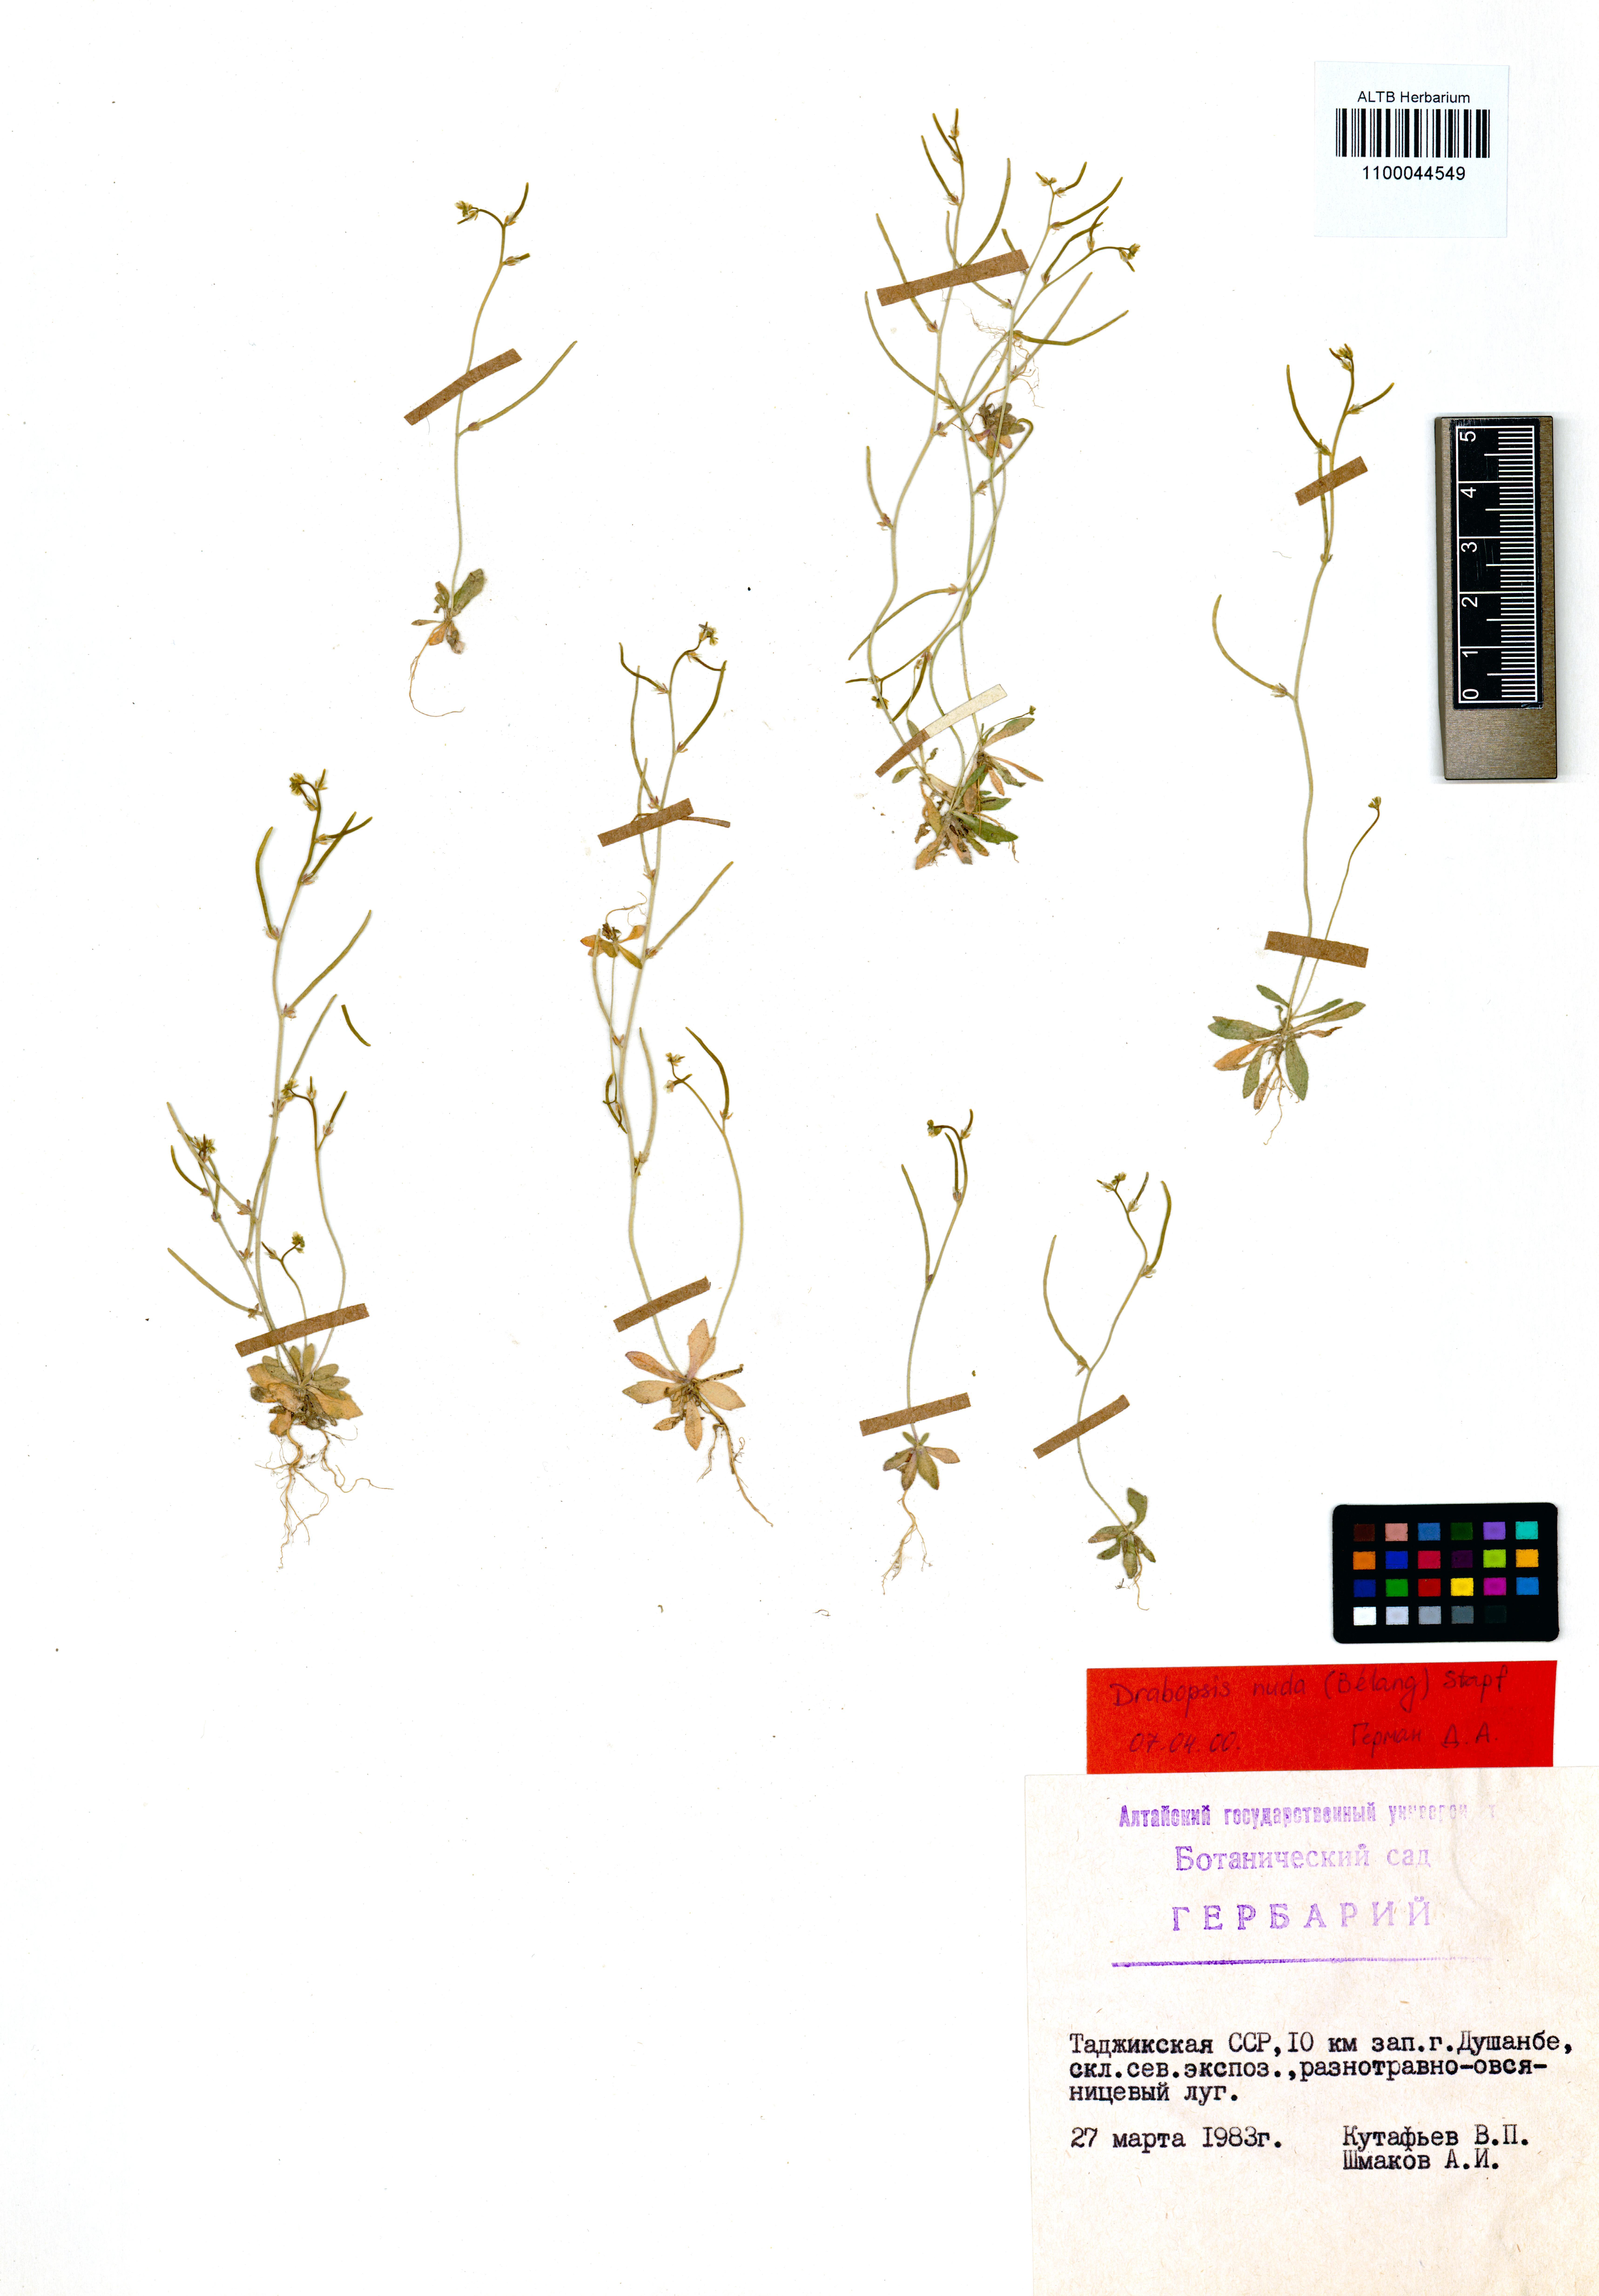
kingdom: Plantae
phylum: Tracheophyta
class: Magnoliopsida
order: Brassicales
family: Brassicaceae
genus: Draba
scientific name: Draba nuda
